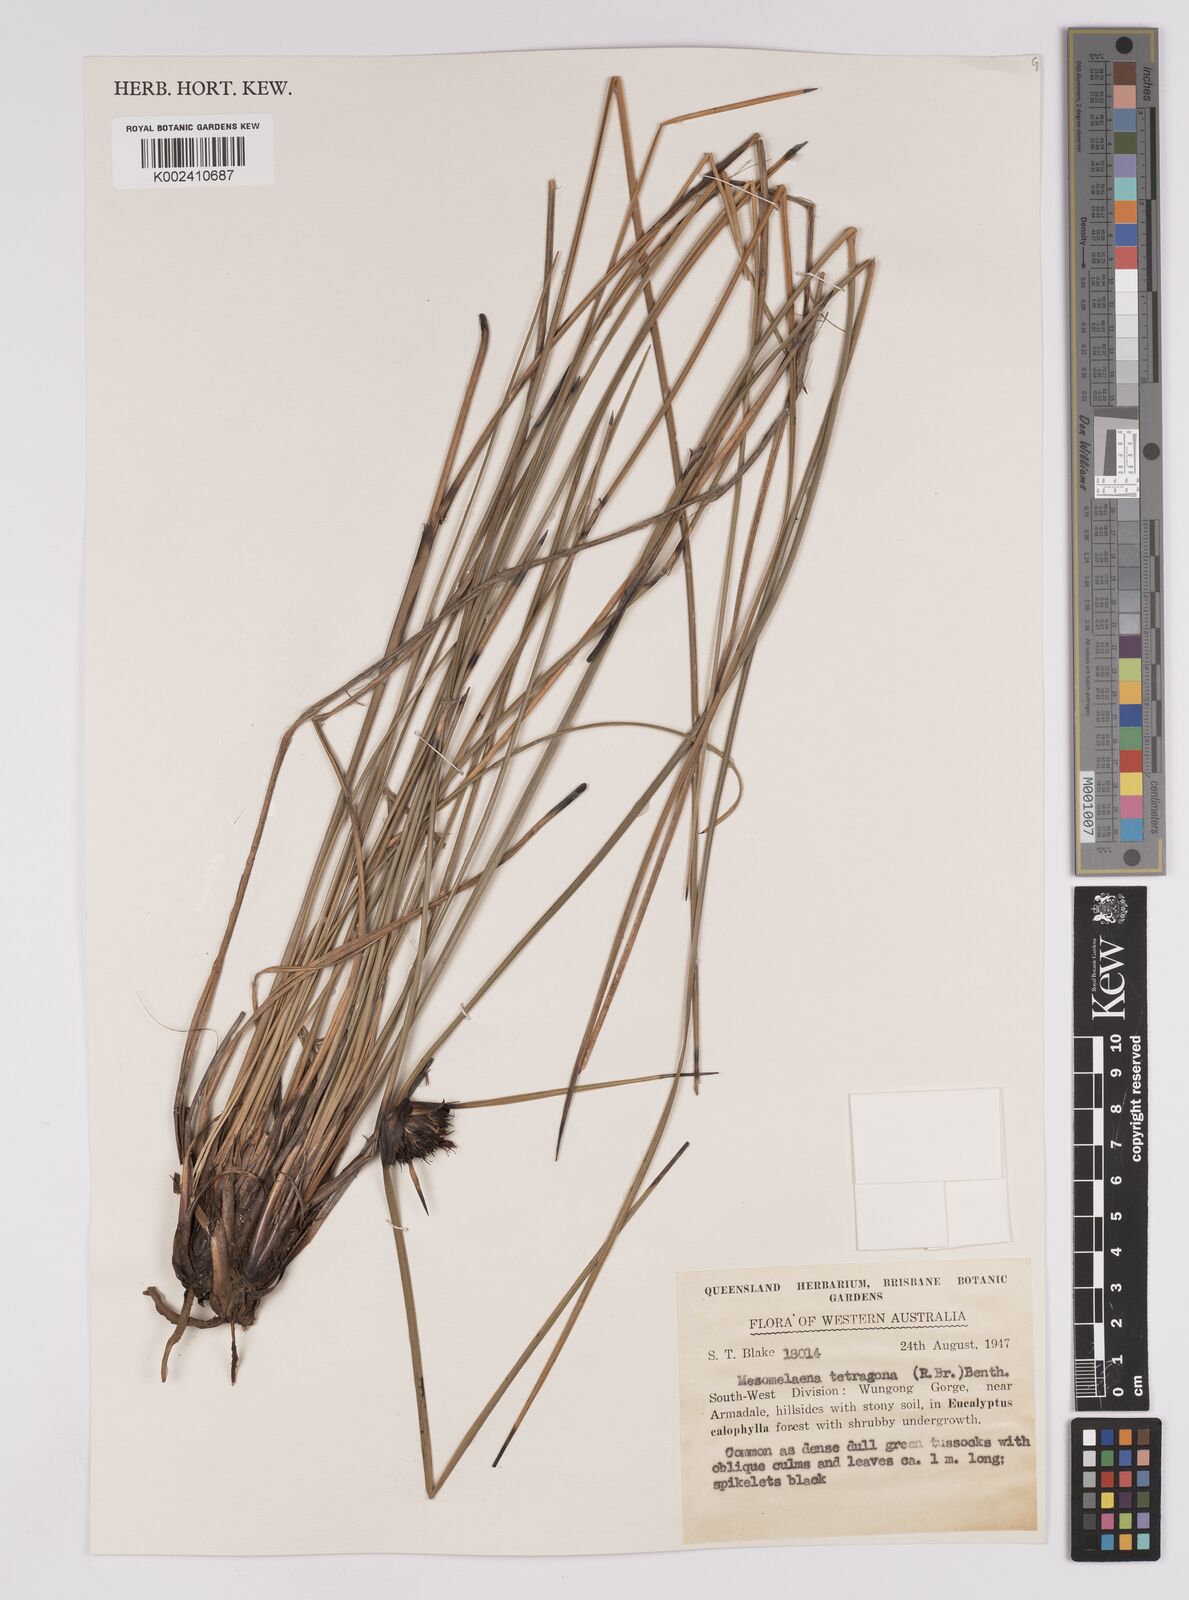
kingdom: Plantae
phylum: Tracheophyta
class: Liliopsida
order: Poales
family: Cyperaceae
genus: Mesomelaena
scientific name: Mesomelaena tetragona
